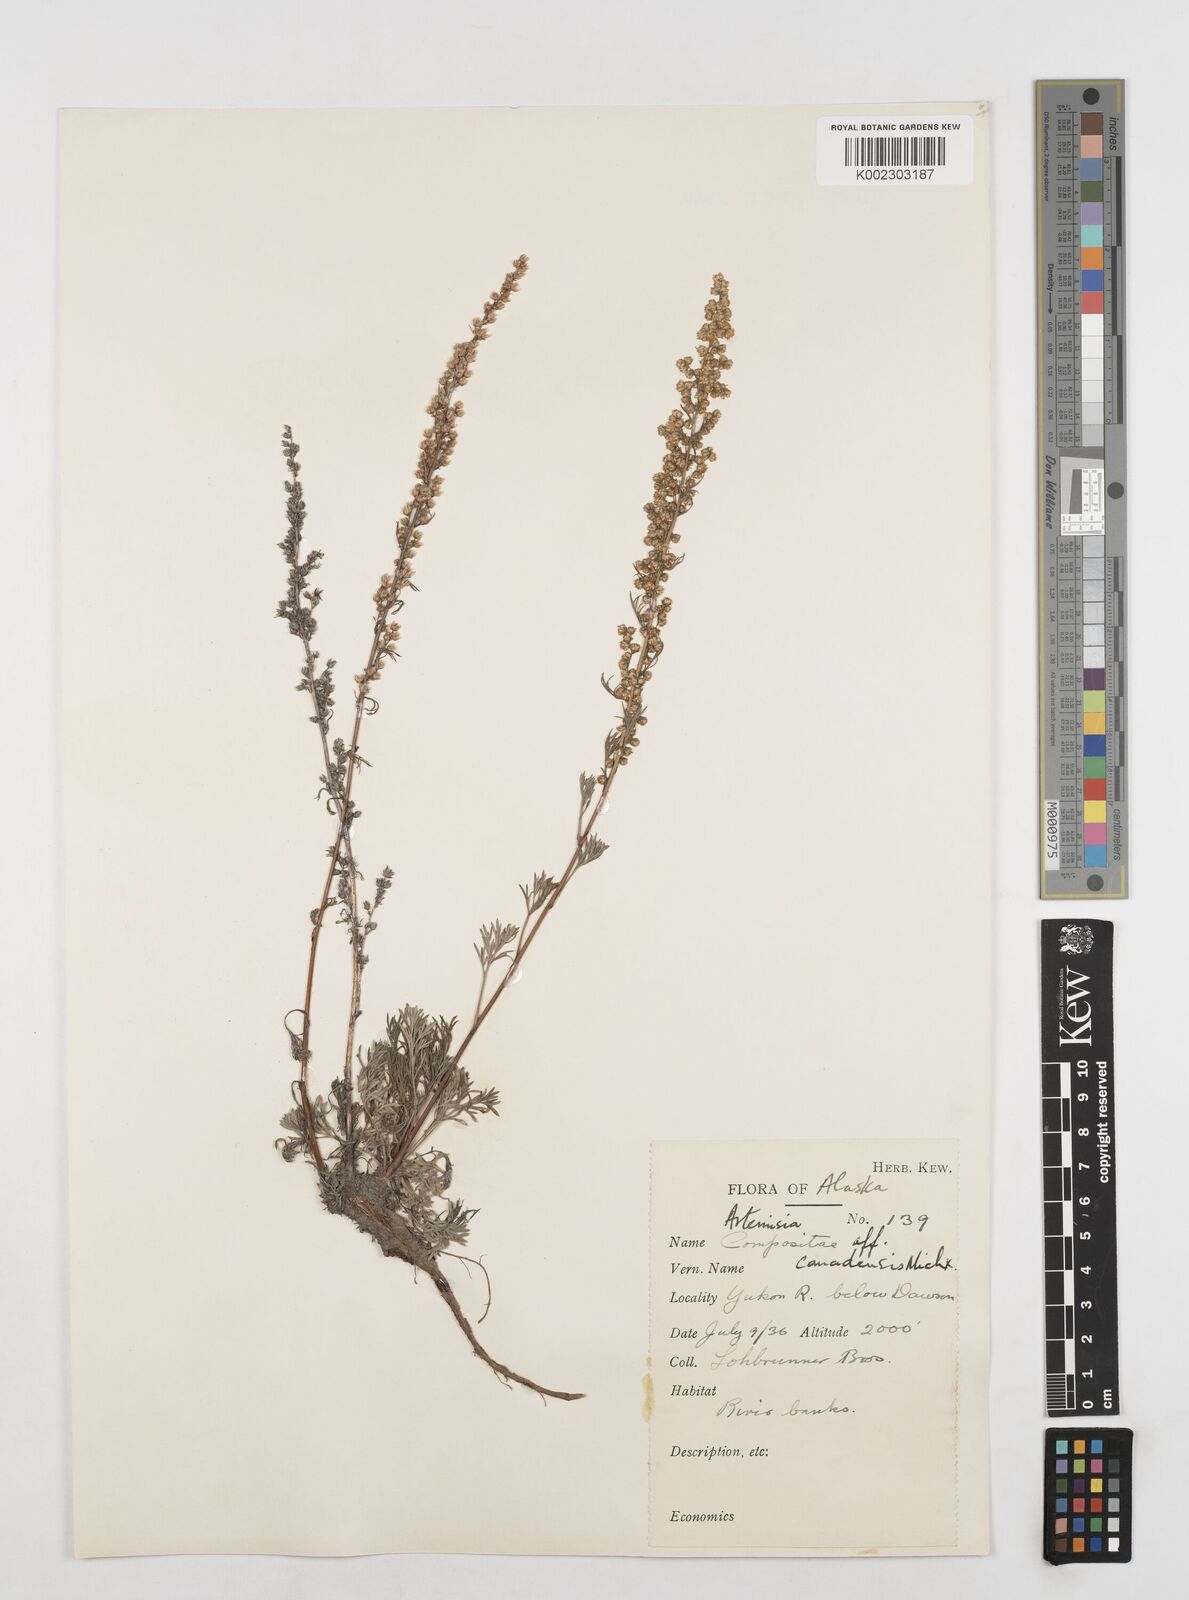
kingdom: Plantae
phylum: Tracheophyta
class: Magnoliopsida
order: Asterales
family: Asteraceae
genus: Artemisia
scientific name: Artemisia campestris
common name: Field wormwood
